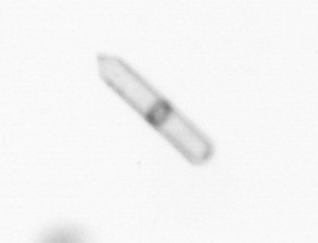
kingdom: Chromista
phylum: Ochrophyta
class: Bacillariophyceae
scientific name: Bacillariophyceae
